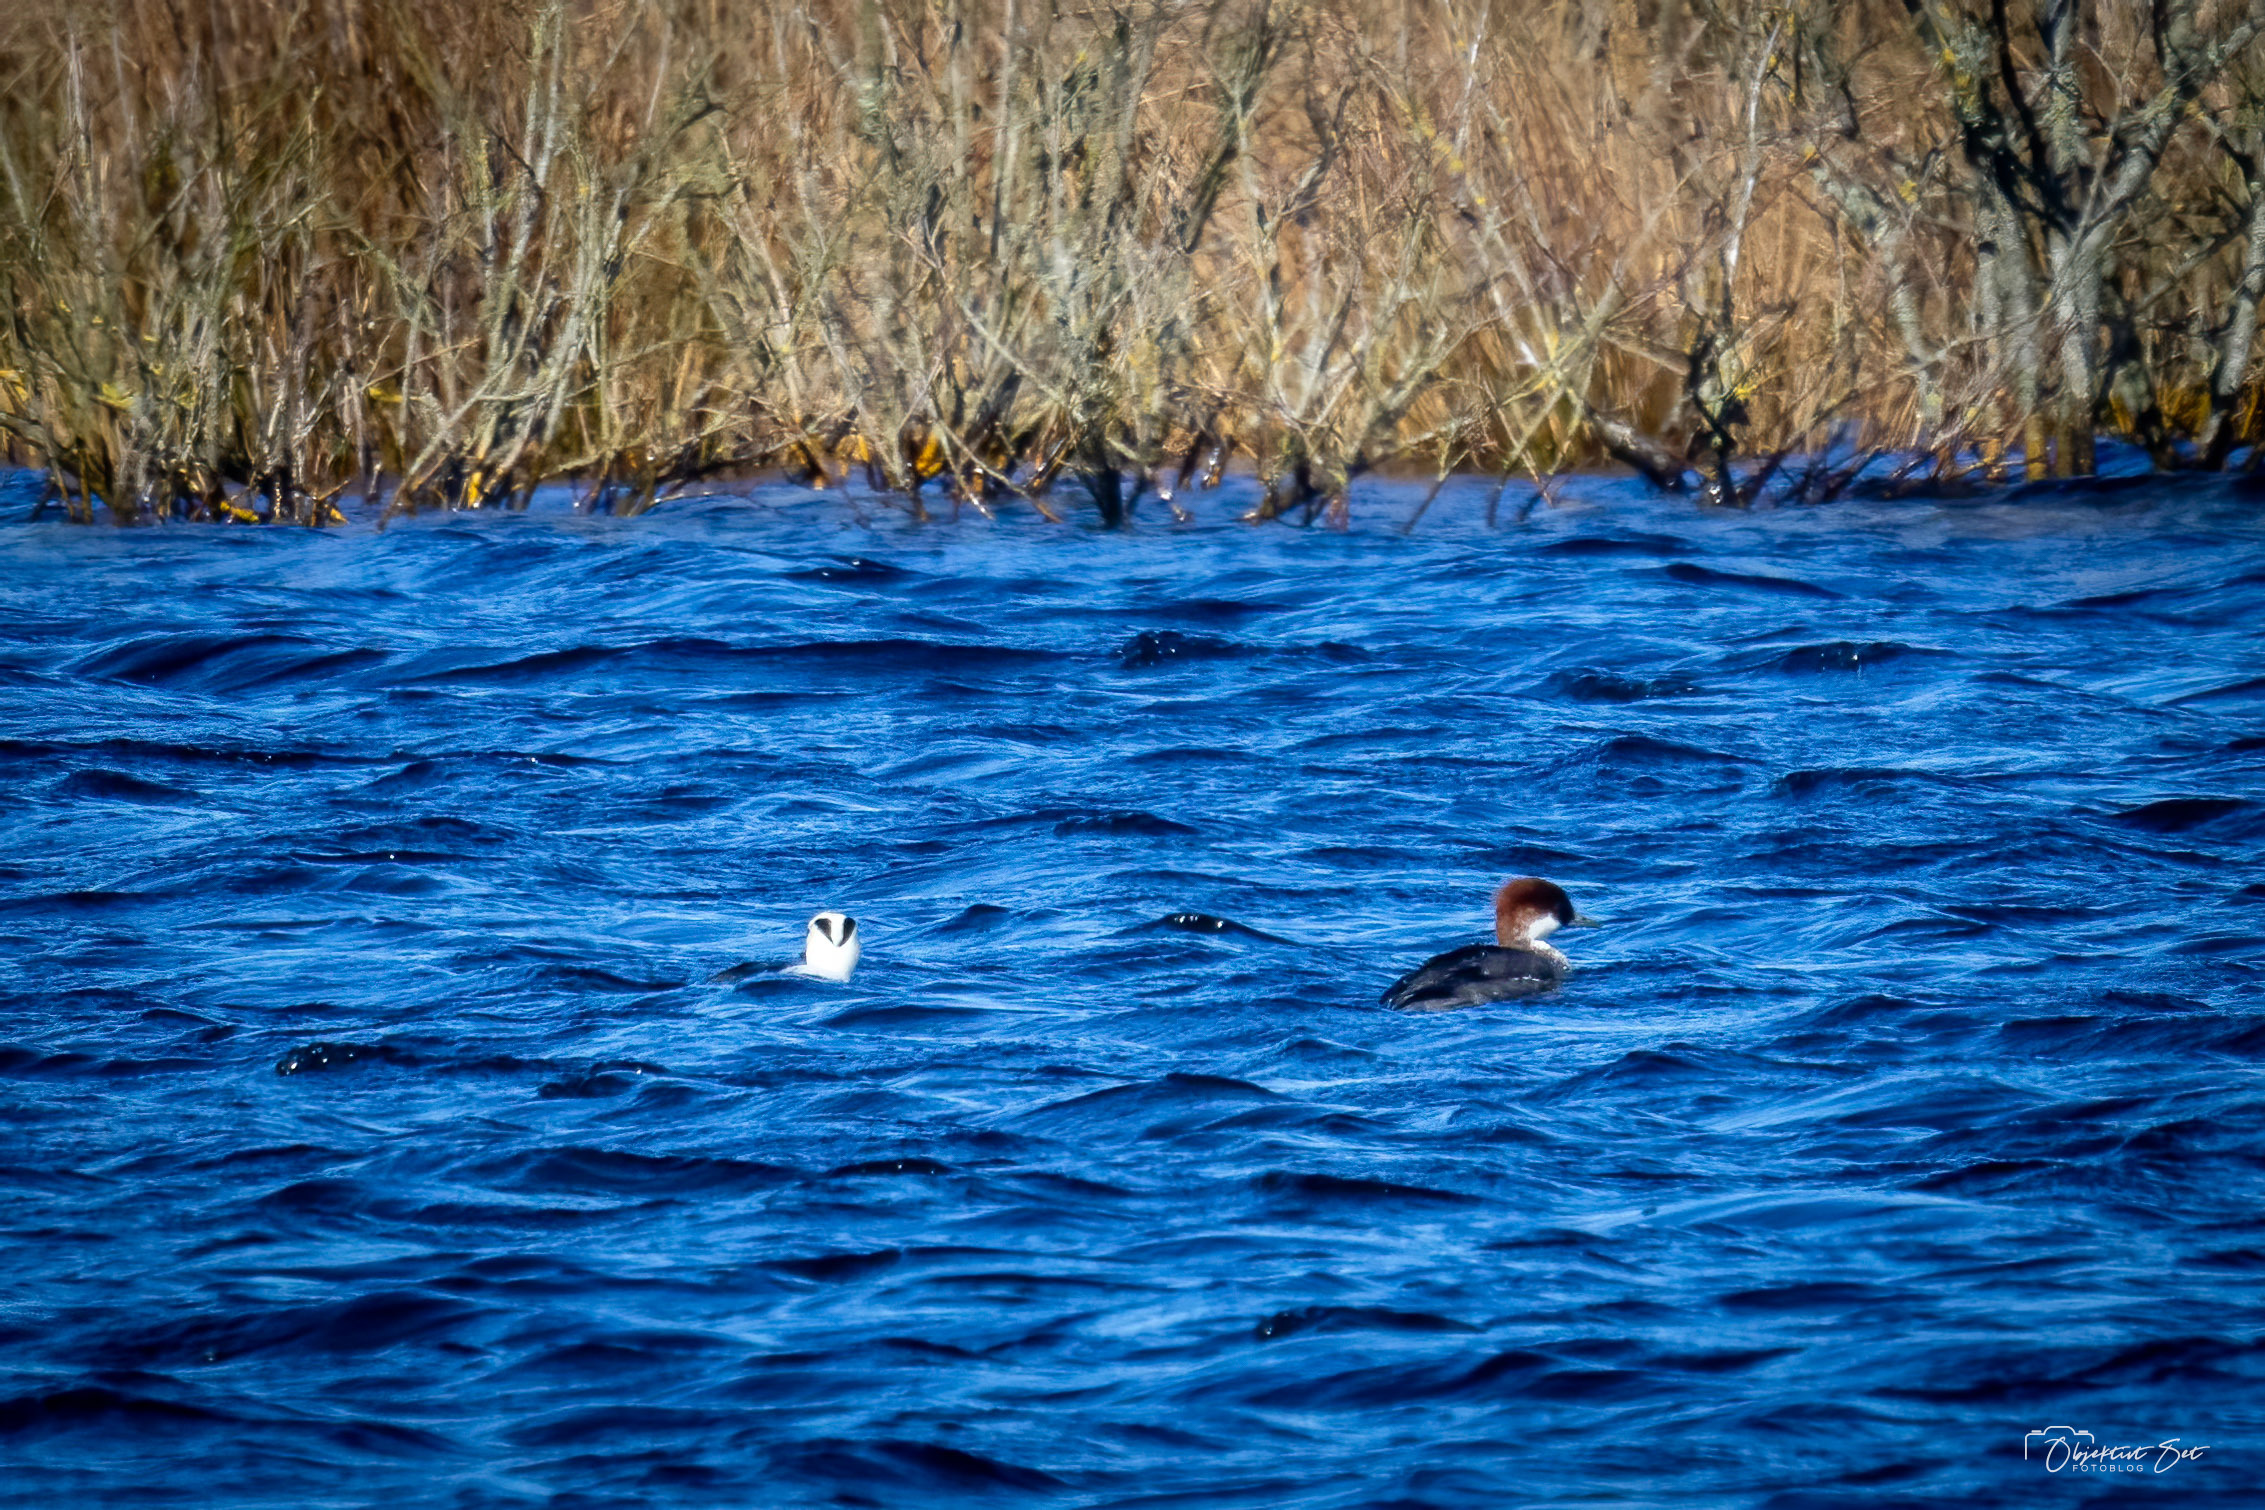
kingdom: Animalia
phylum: Chordata
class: Aves
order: Anseriformes
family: Anatidae
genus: Mergellus
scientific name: Mergellus albellus
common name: Lille skallesluger
